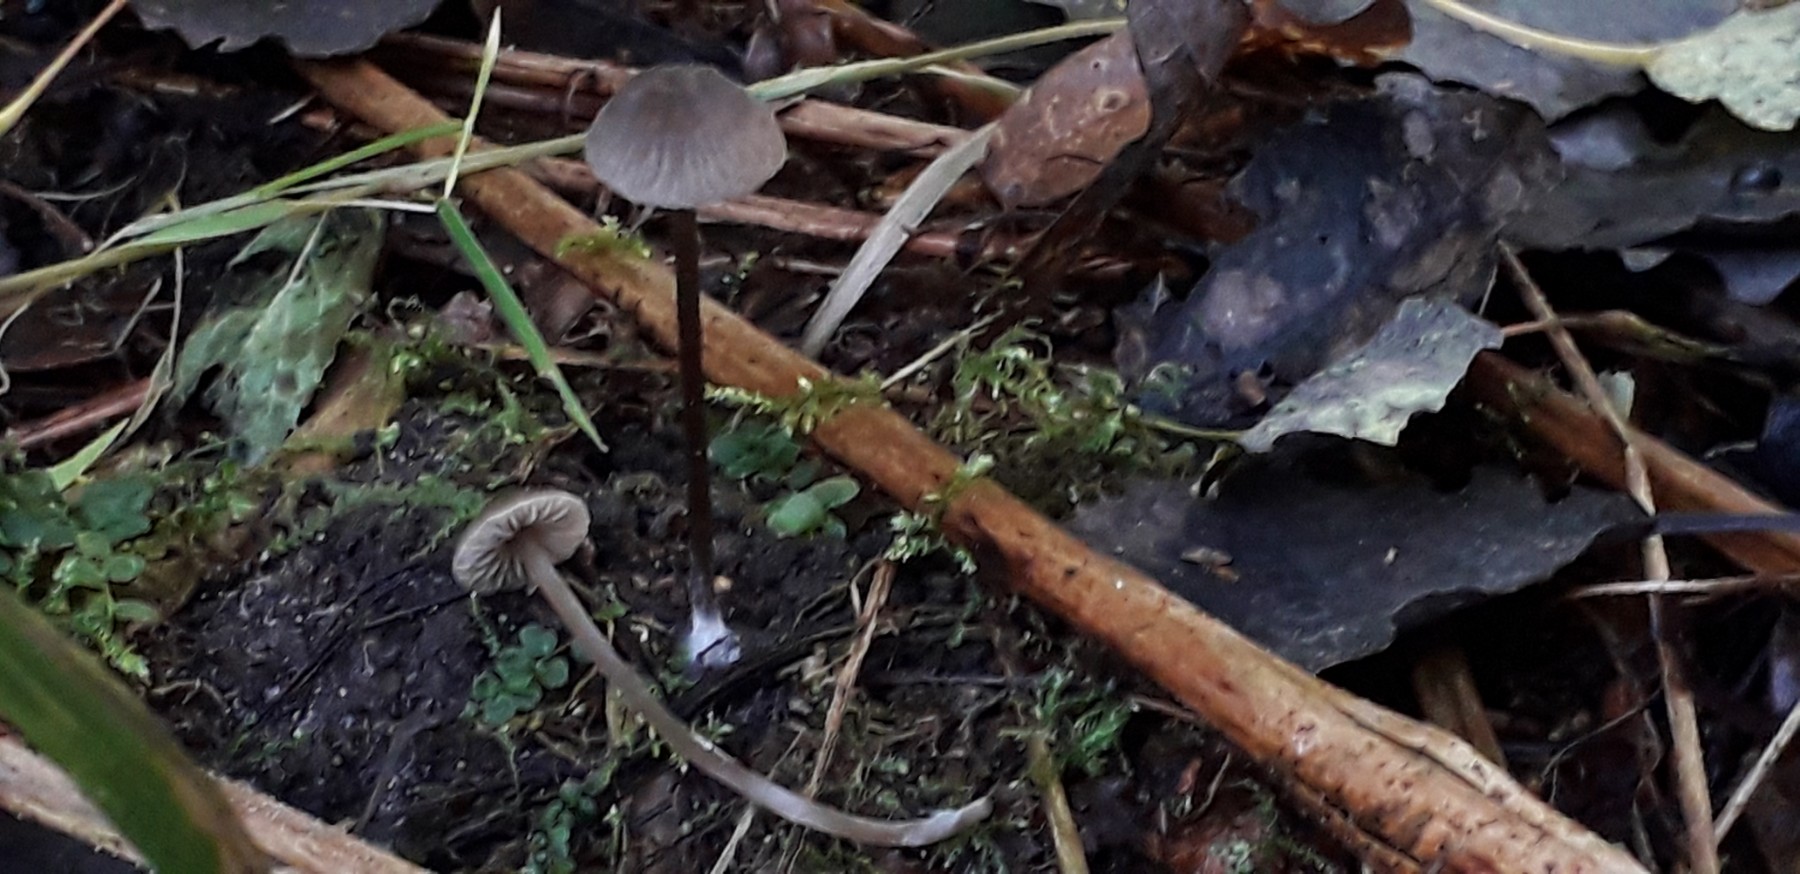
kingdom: Fungi
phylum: Basidiomycota
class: Agaricomycetes
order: Agaricales
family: Entolomataceae
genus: Entoloma
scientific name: Entoloma
